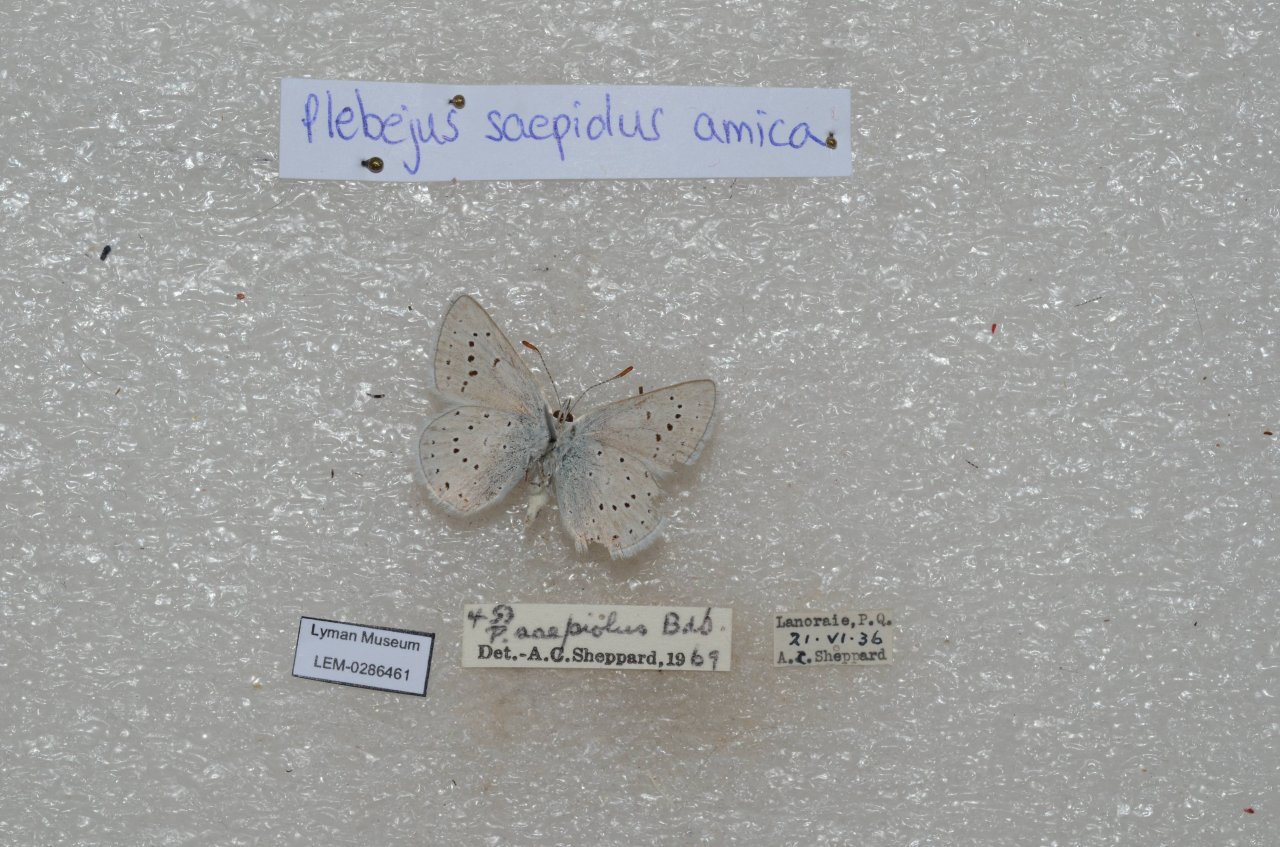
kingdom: Animalia
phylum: Arthropoda
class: Insecta
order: Lepidoptera
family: Lycaenidae
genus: Plebejus
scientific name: Plebejus saepiolus
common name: Greenish Blue
